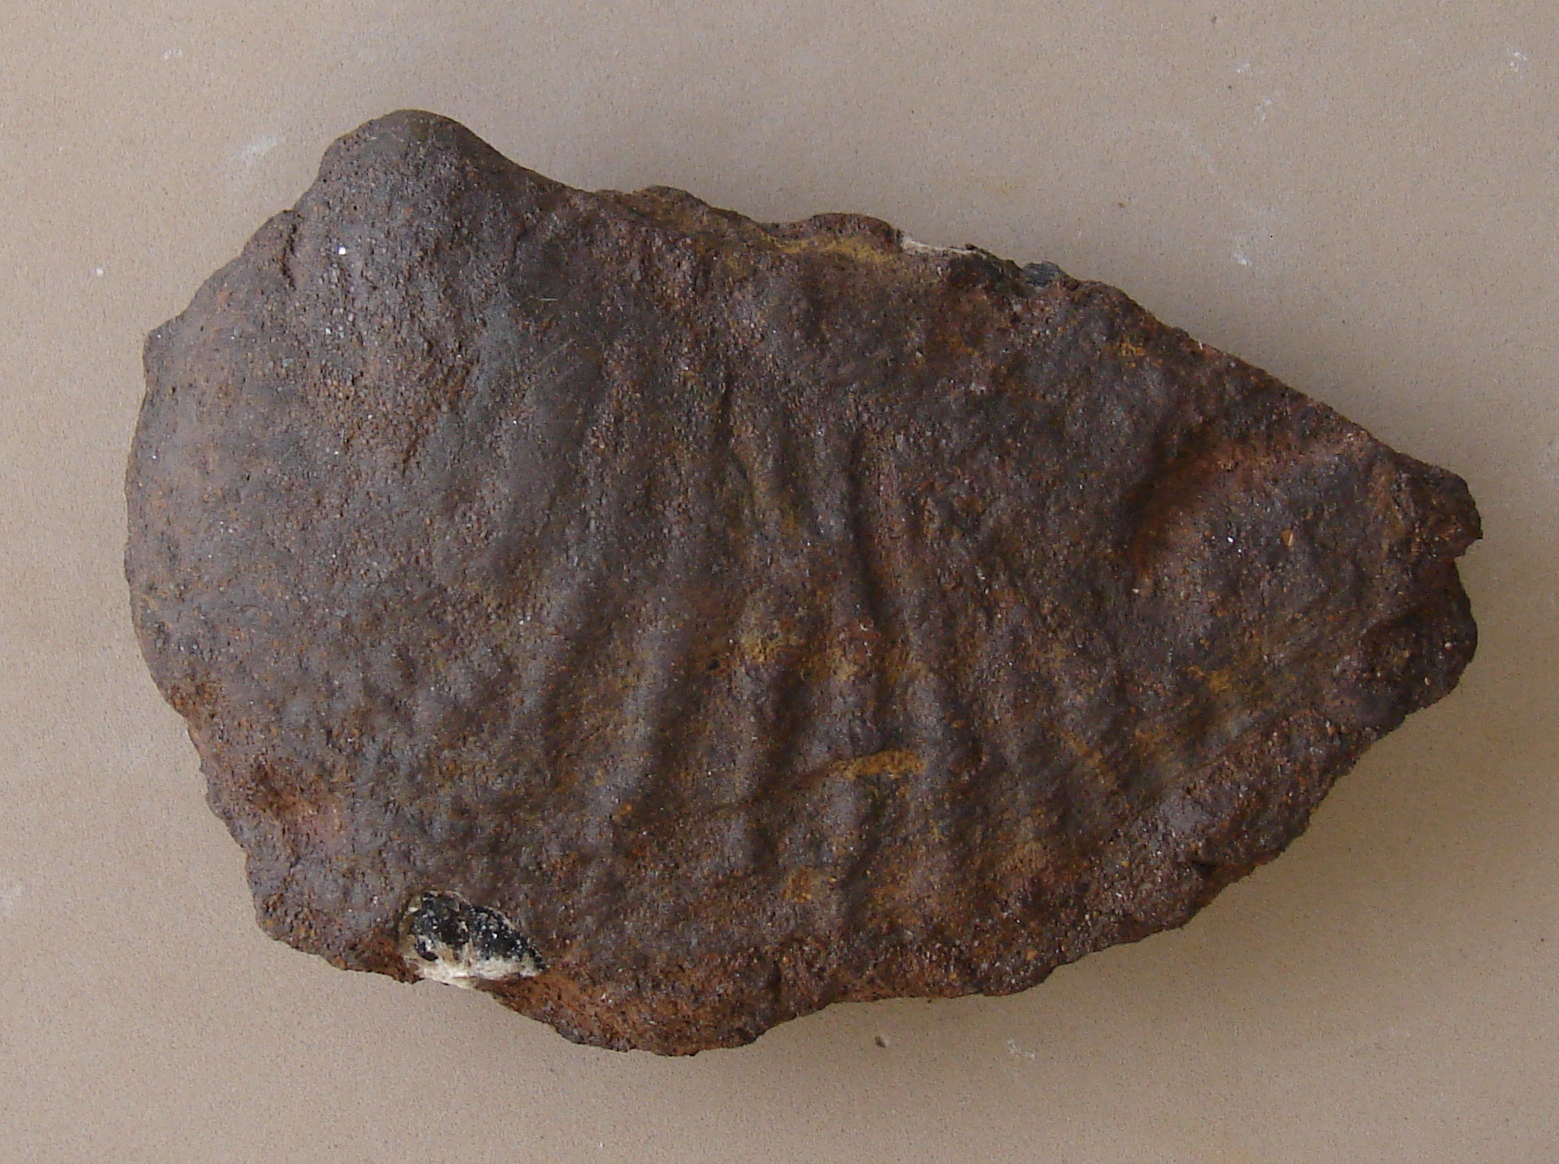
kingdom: Animalia
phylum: Mollusca
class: Bivalvia
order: Trigoniida
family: Myophorellidae
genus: Scaphotrigonia
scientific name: Scaphotrigonia navis
